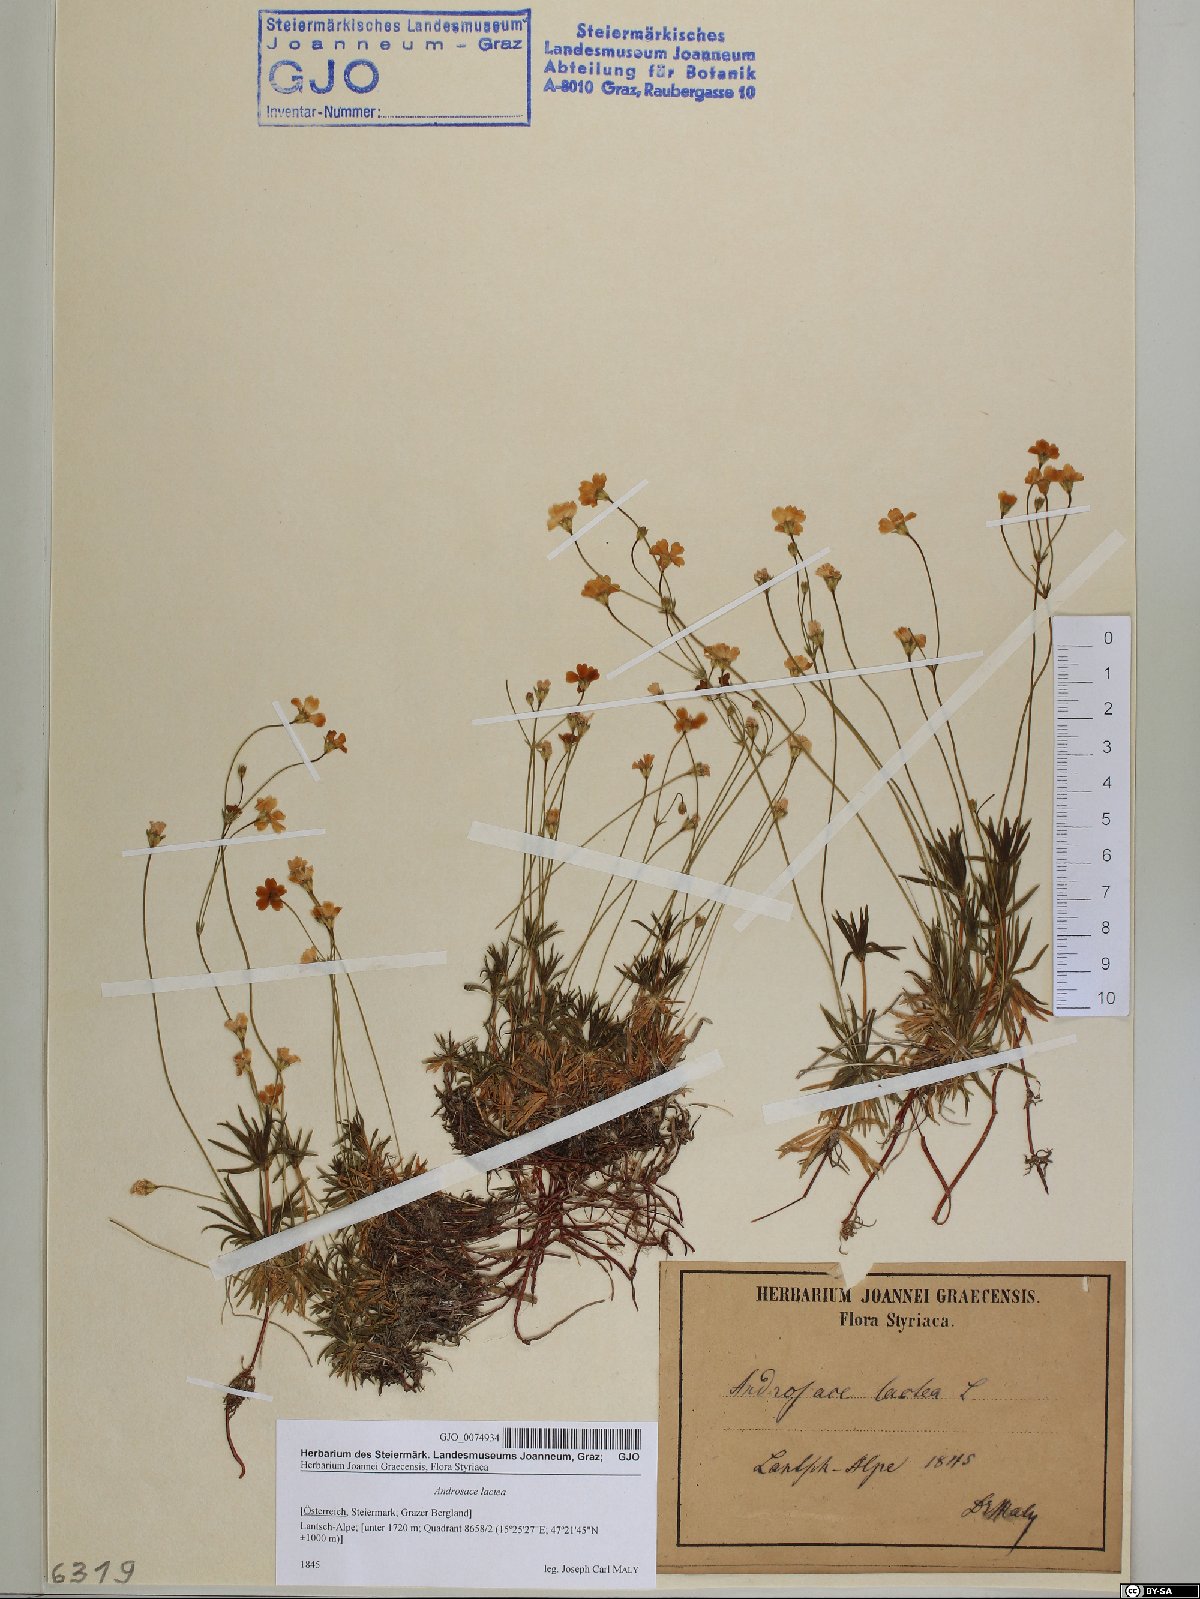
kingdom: Plantae
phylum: Tracheophyta
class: Magnoliopsida
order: Ericales
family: Primulaceae
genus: Androsace
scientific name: Androsace lactea
